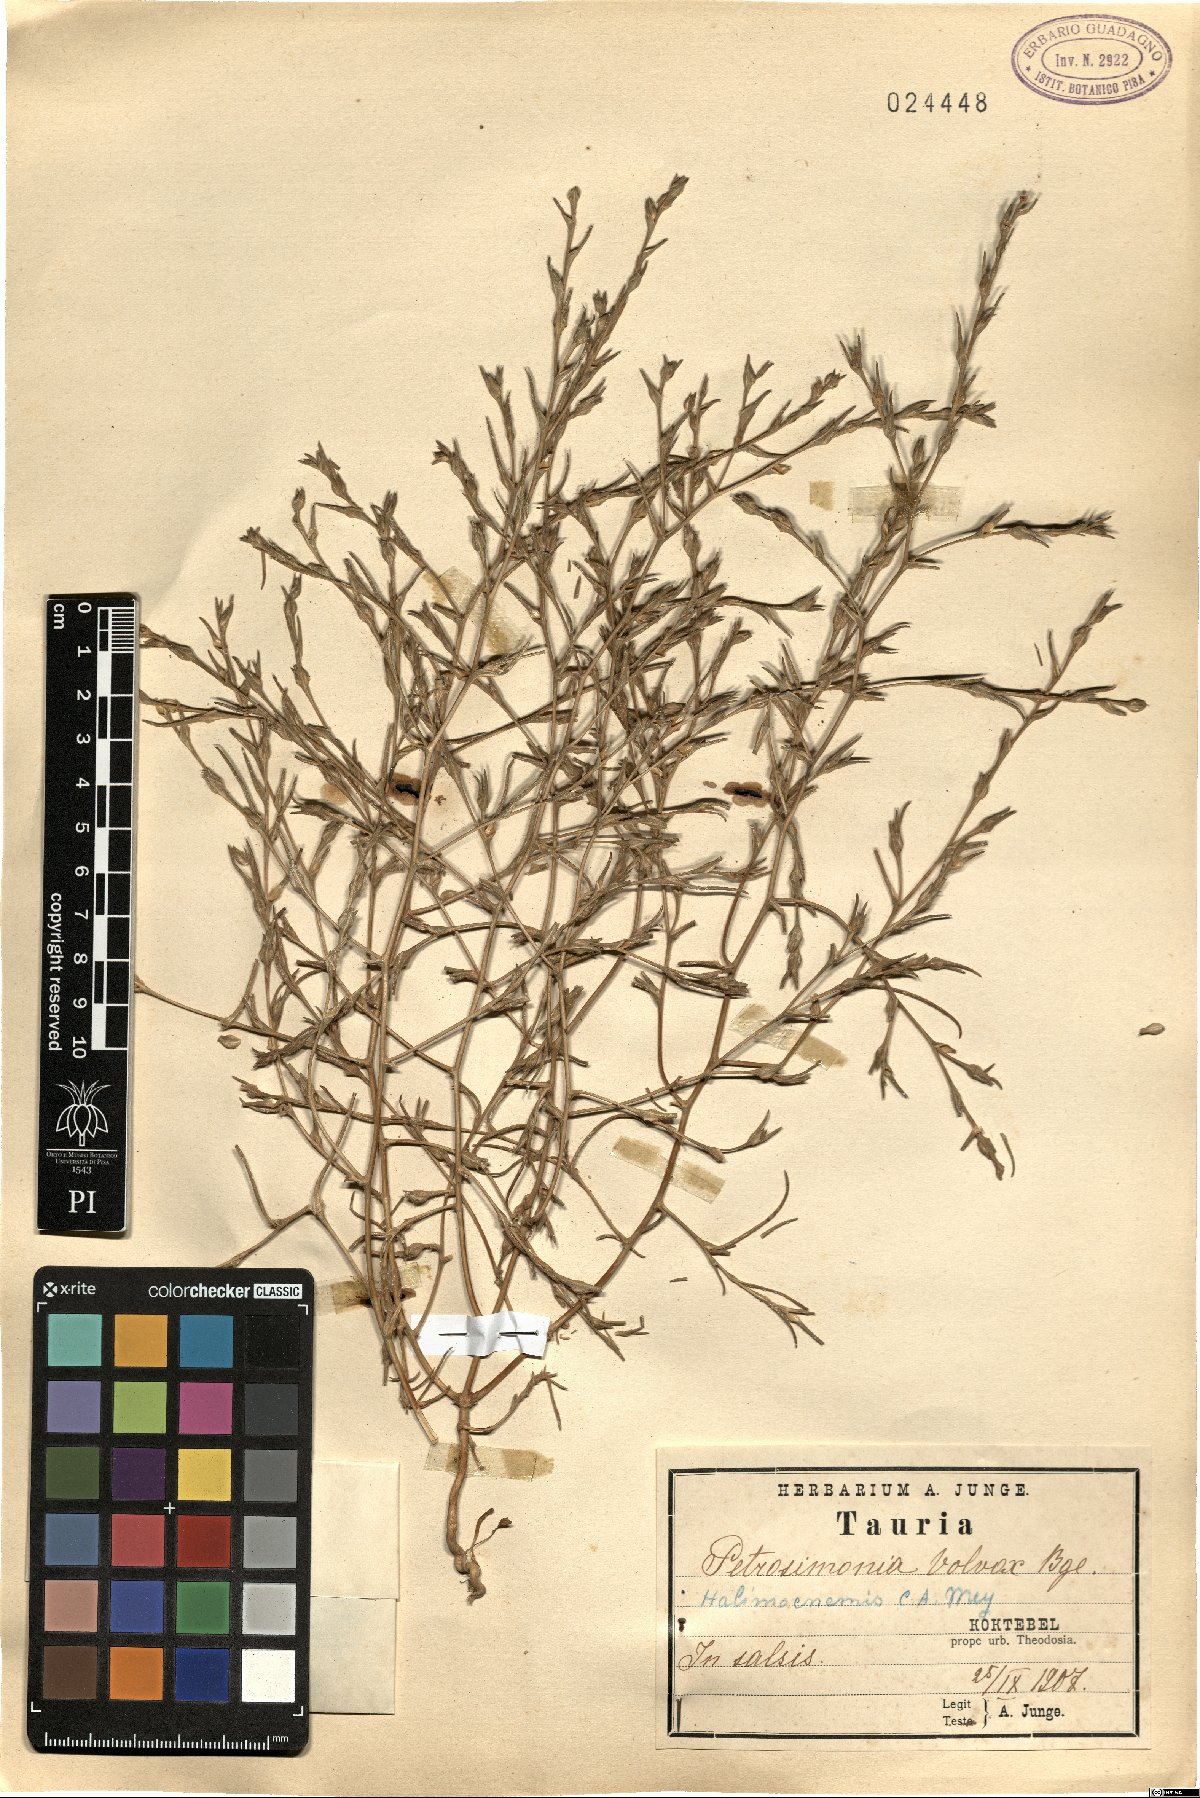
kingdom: Plantae
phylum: Tracheophyta
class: Magnoliopsida
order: Caryophyllales
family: Amaranthaceae
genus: Petrosimonia
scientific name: Petrosimonia triandra
